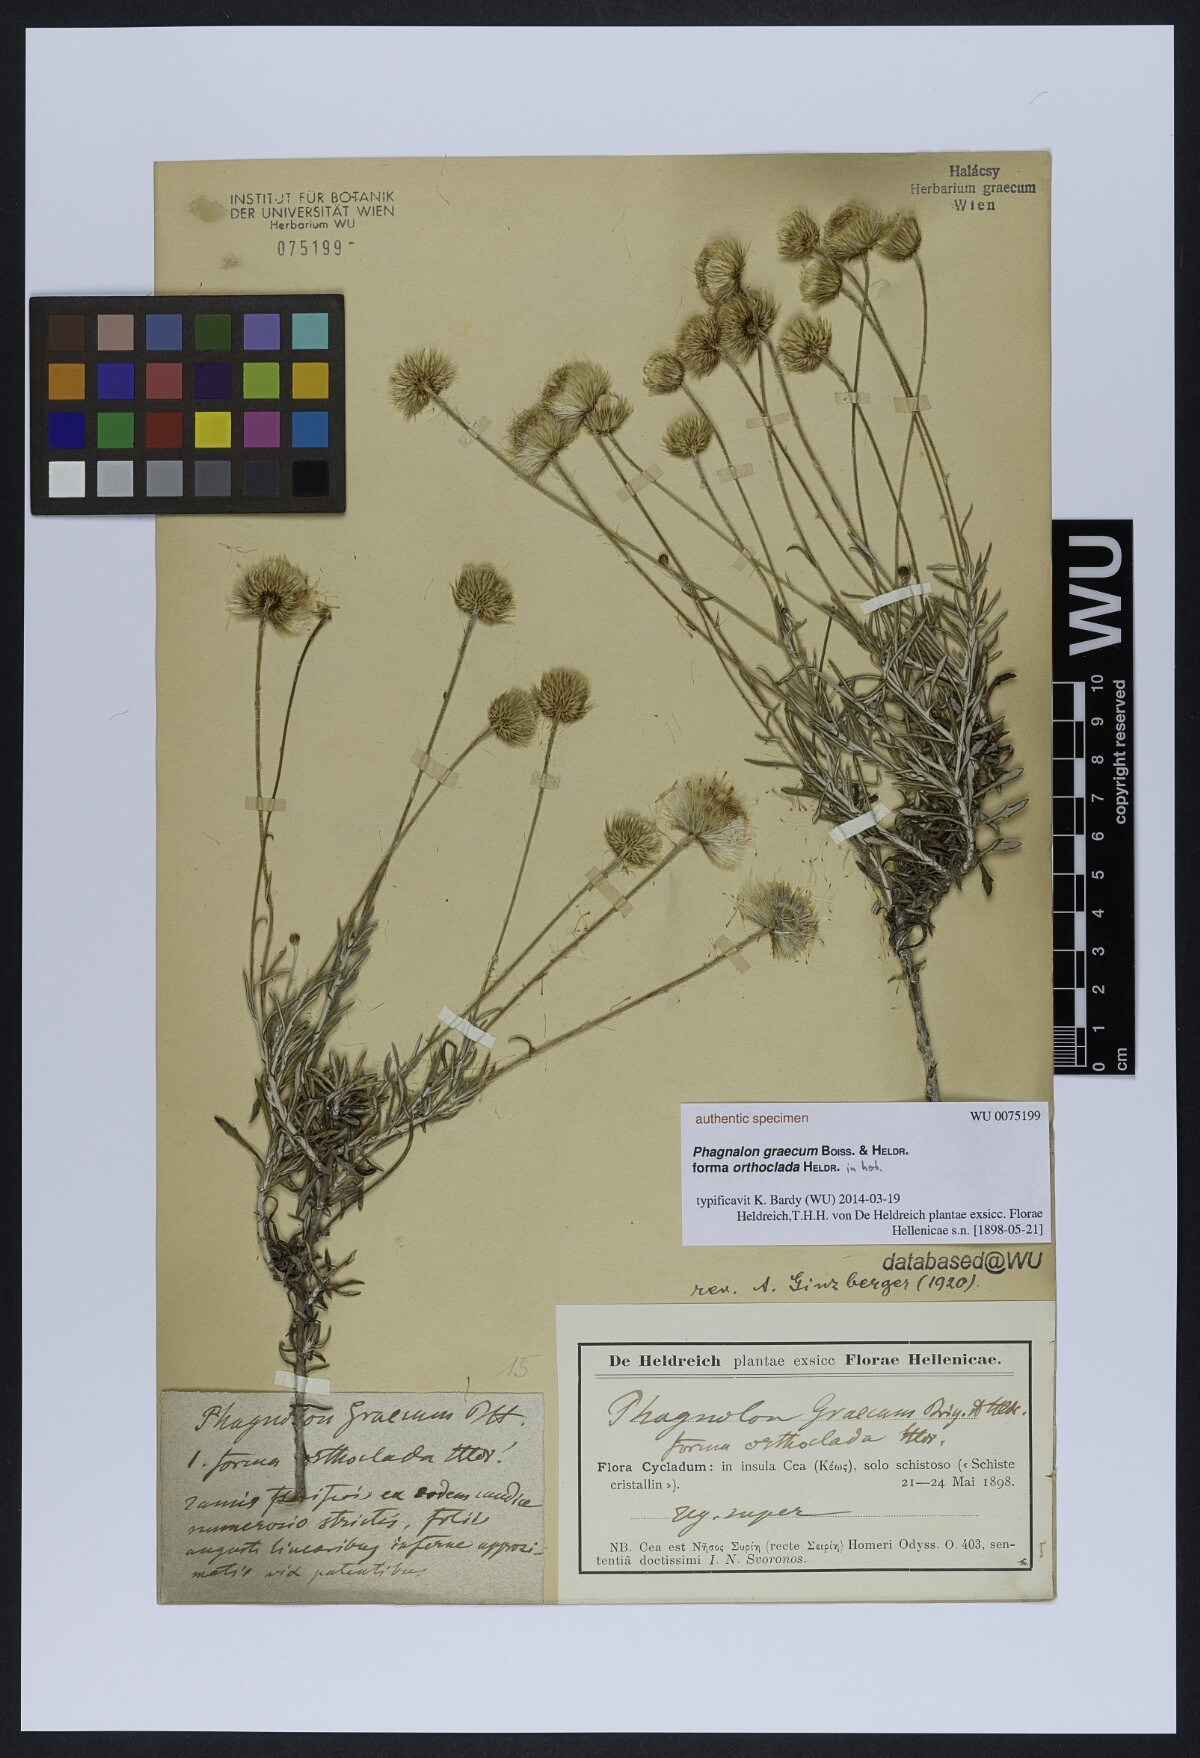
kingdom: Plantae
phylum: Tracheophyta
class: Magnoliopsida
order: Asterales
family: Asteraceae
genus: Phagnalon
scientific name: Phagnalon graecum
